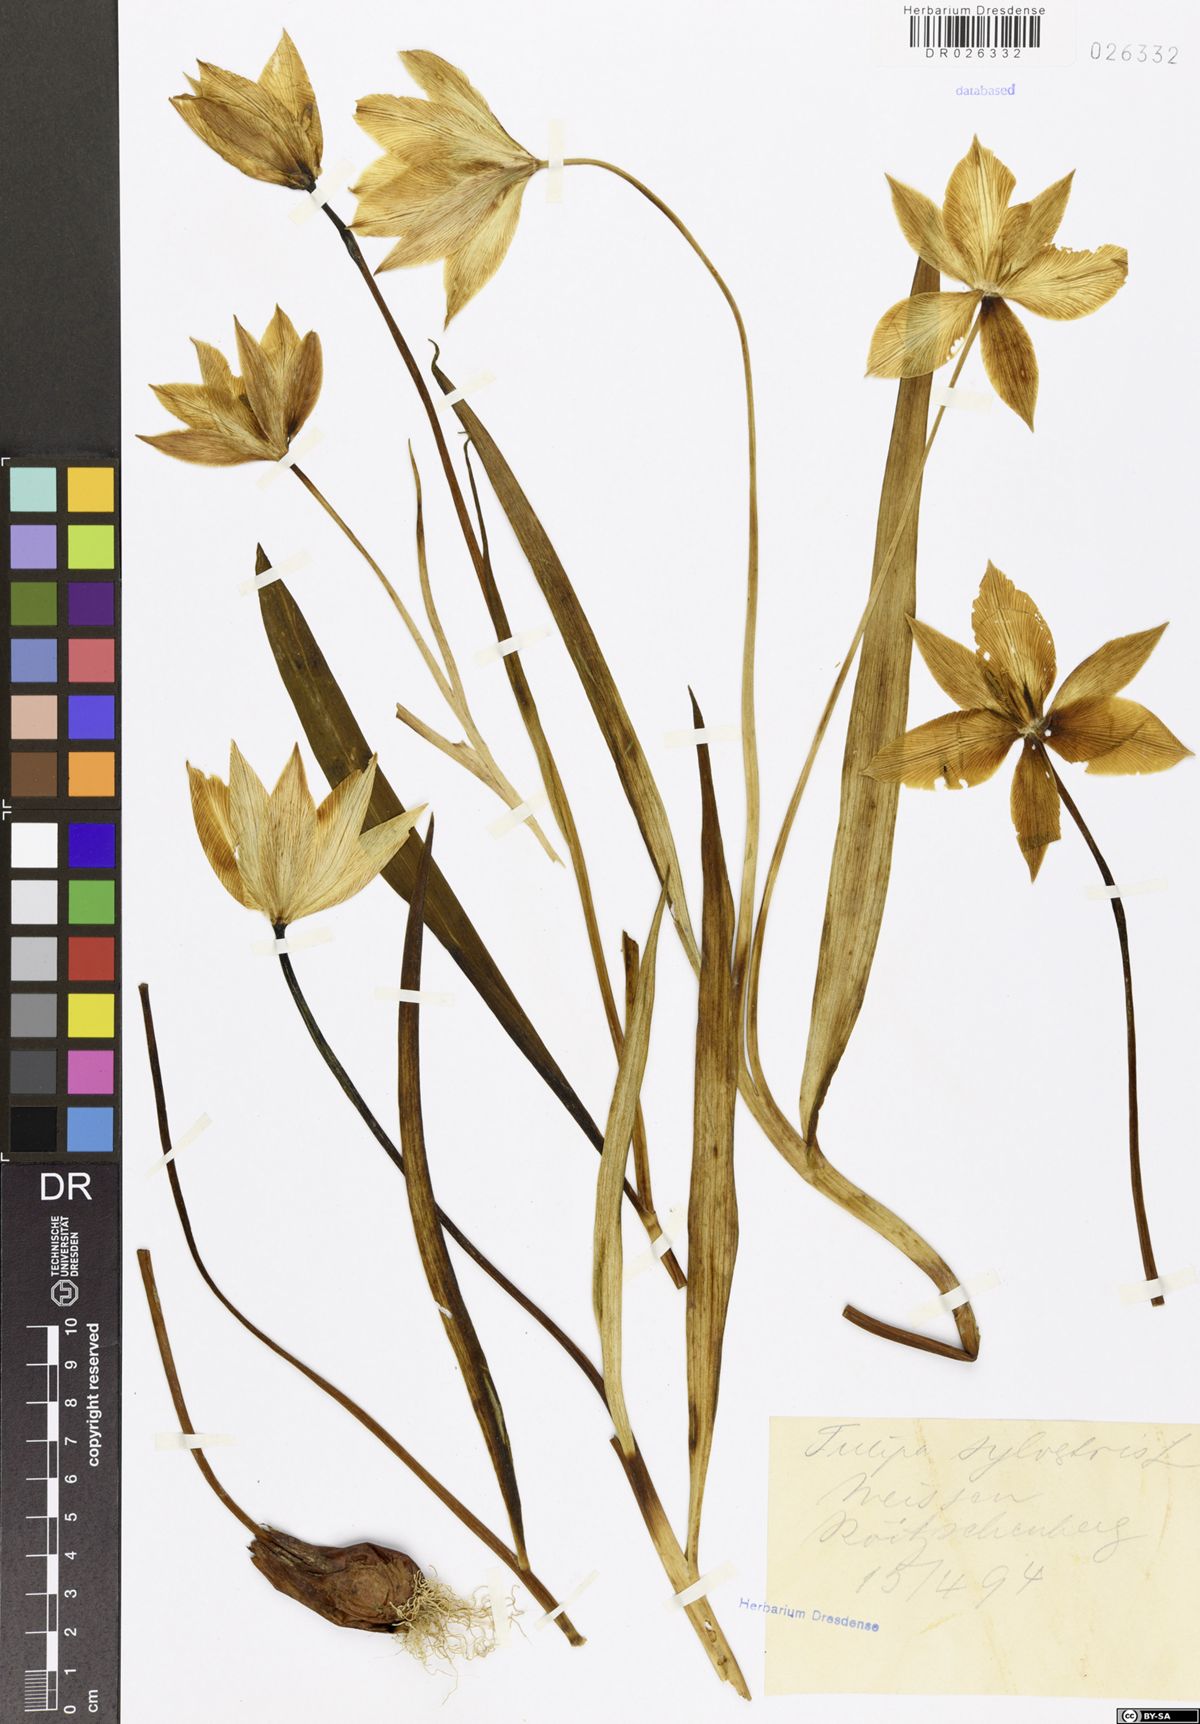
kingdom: Plantae
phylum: Tracheophyta
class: Liliopsida
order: Liliales
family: Liliaceae
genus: Tulipa
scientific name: Tulipa sylvestris
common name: Wild tulip
